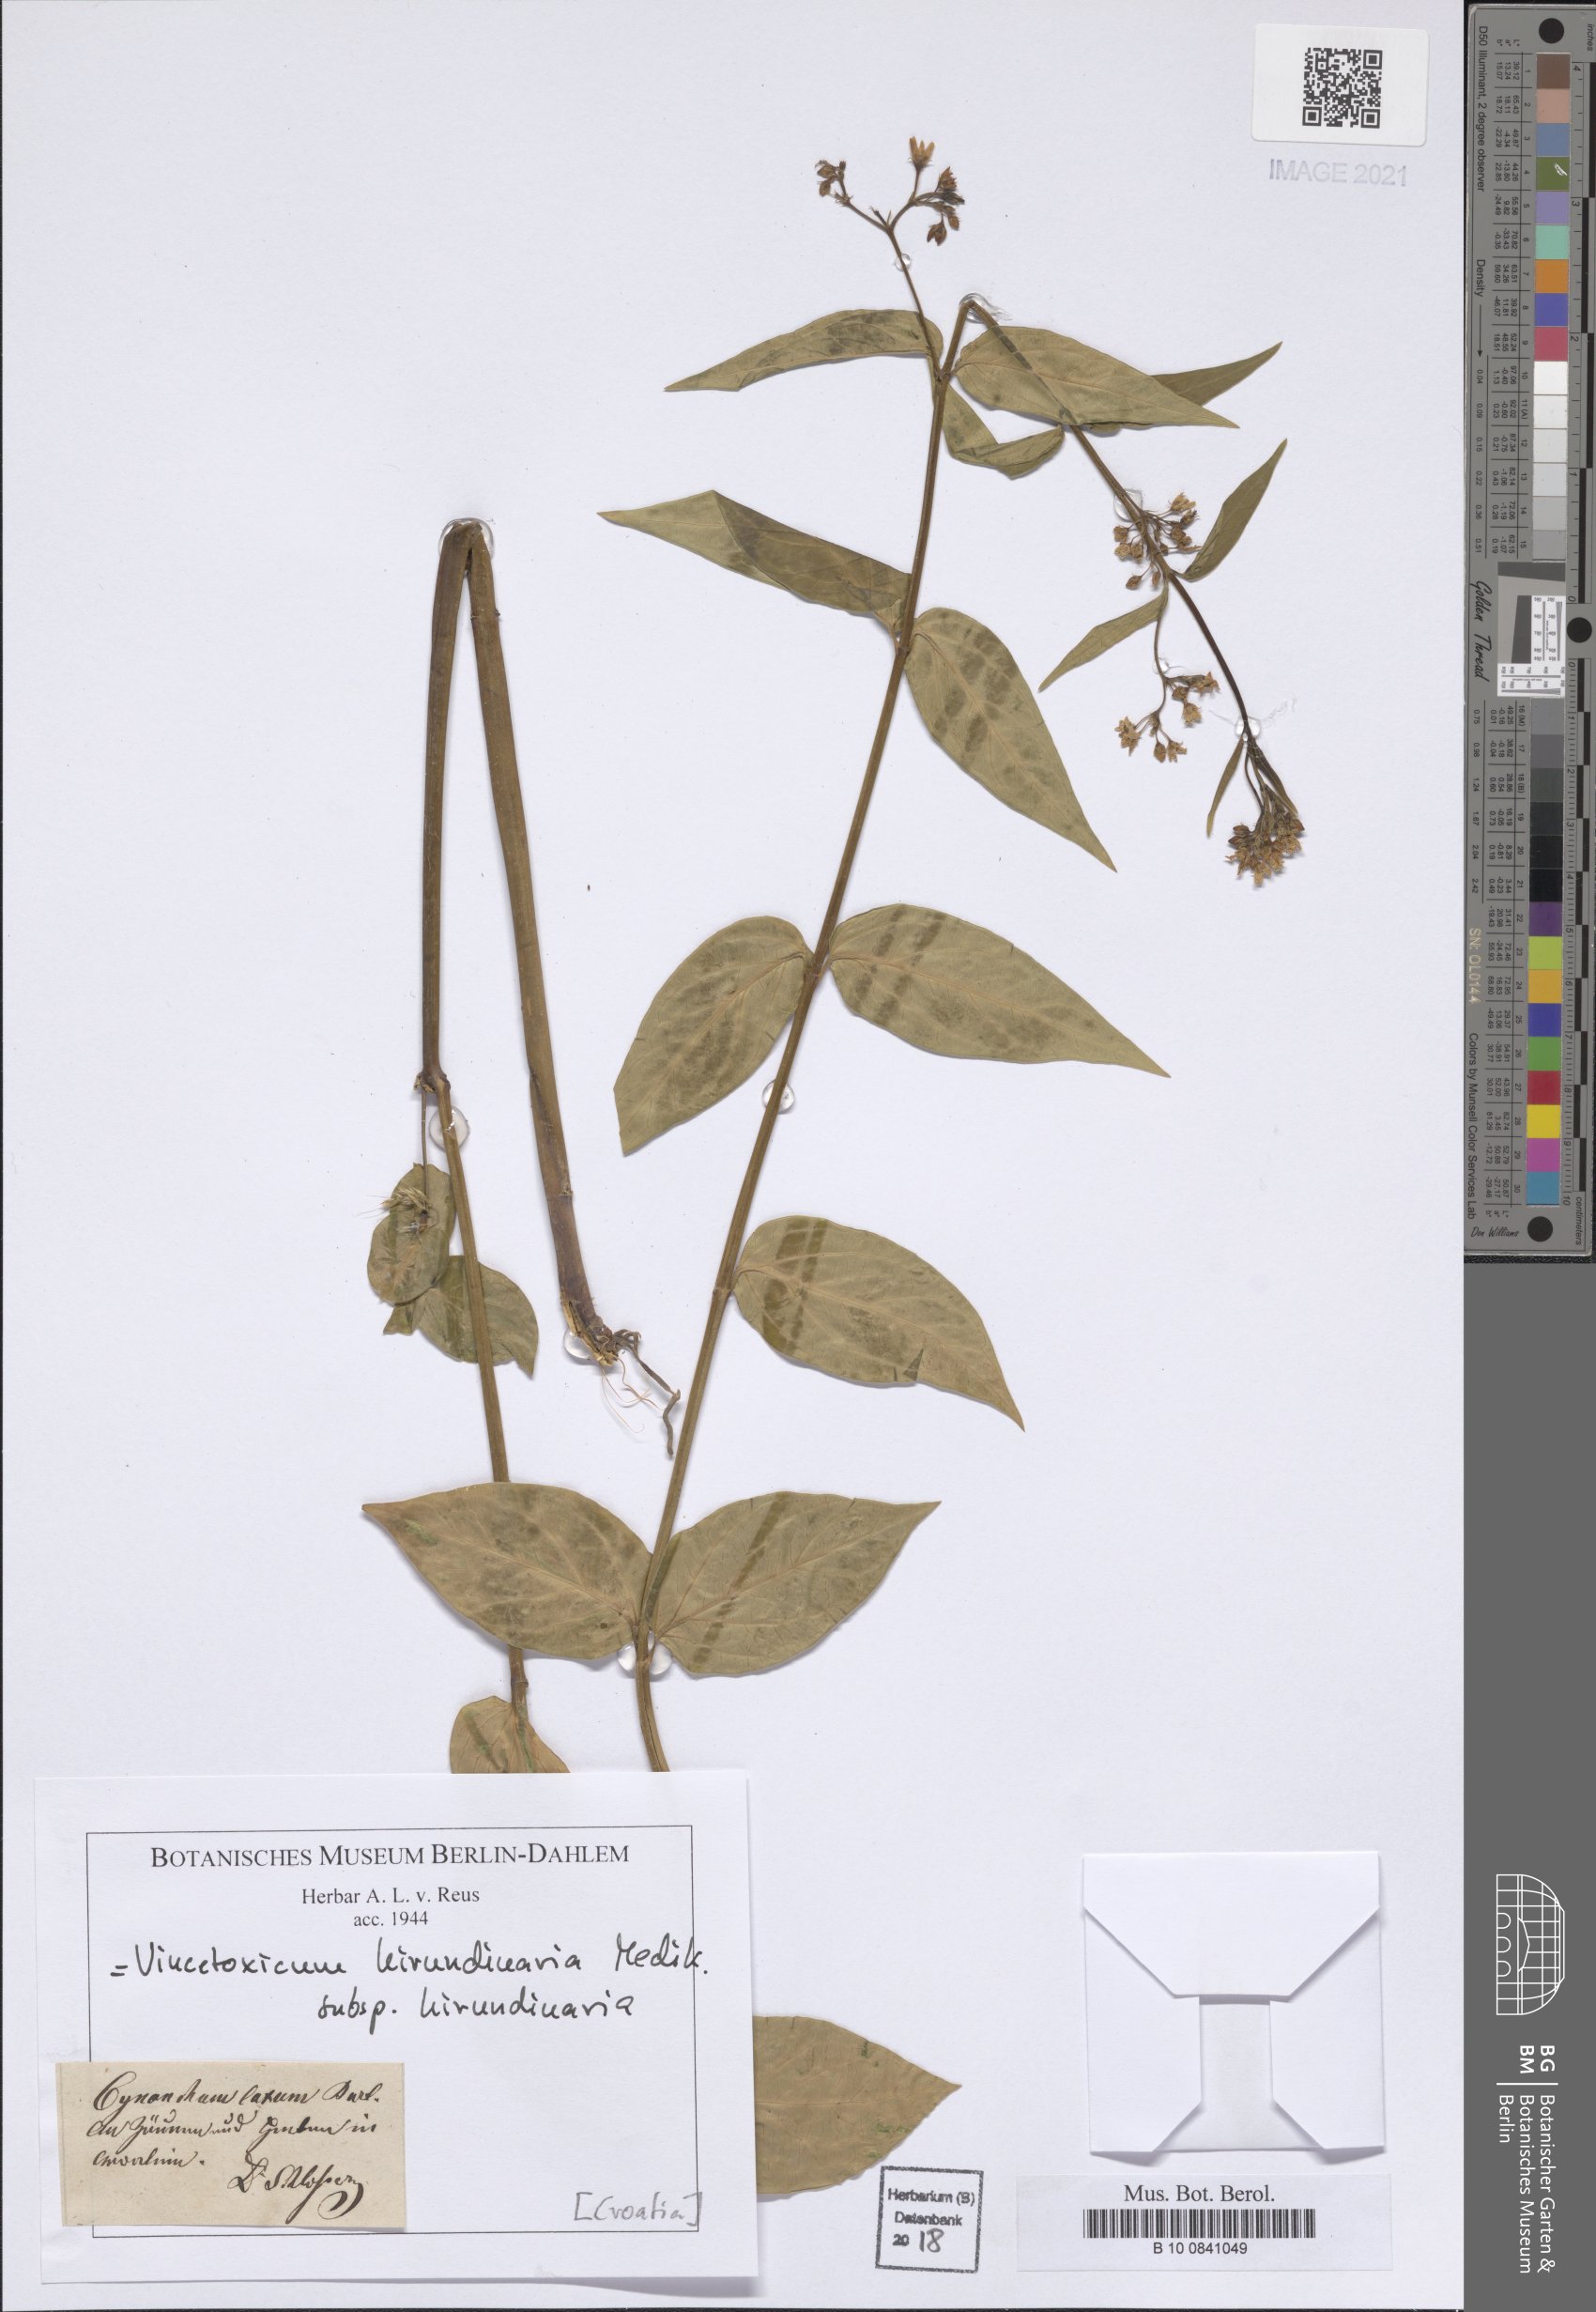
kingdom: Plantae
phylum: Tracheophyta
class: Magnoliopsida
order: Gentianales
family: Apocynaceae
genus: Vincetoxicum
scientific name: Vincetoxicum hirundinaria
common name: White swallowwort
